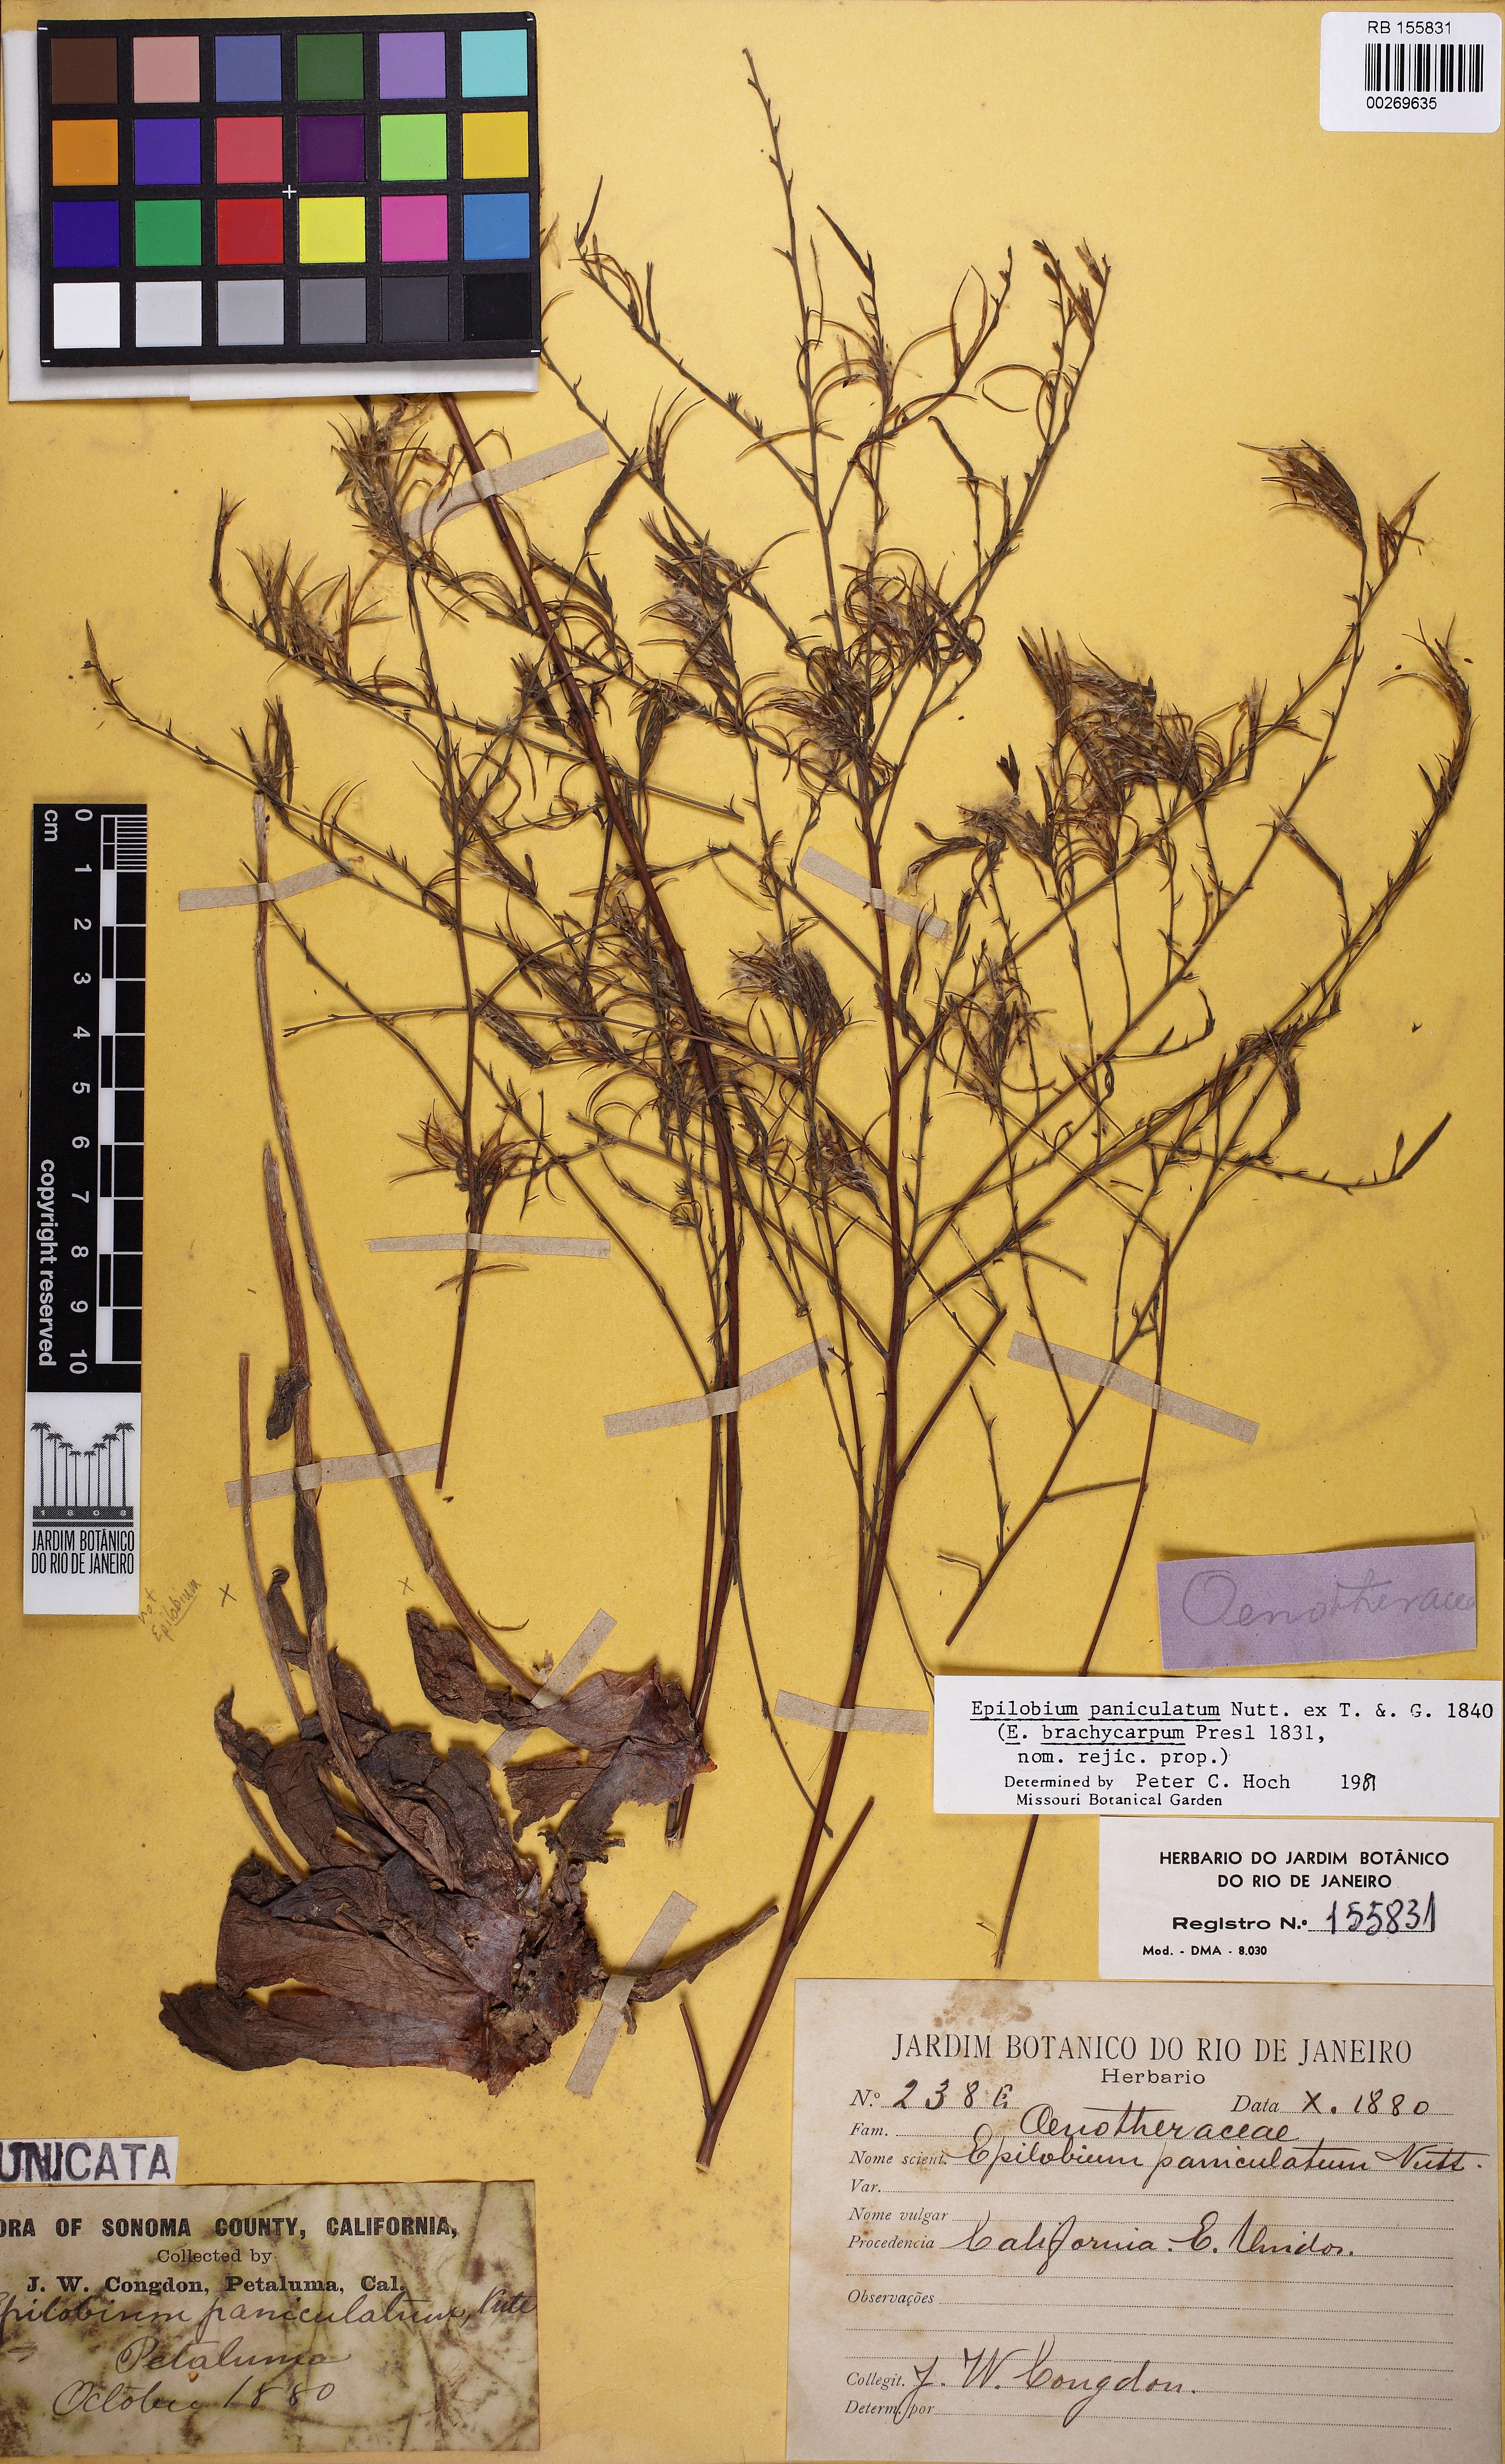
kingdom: Plantae
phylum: Tracheophyta
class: Magnoliopsida
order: Myrtales
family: Onagraceae
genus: Epilobium
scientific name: Epilobium brachycarpum
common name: Annual willowherb
